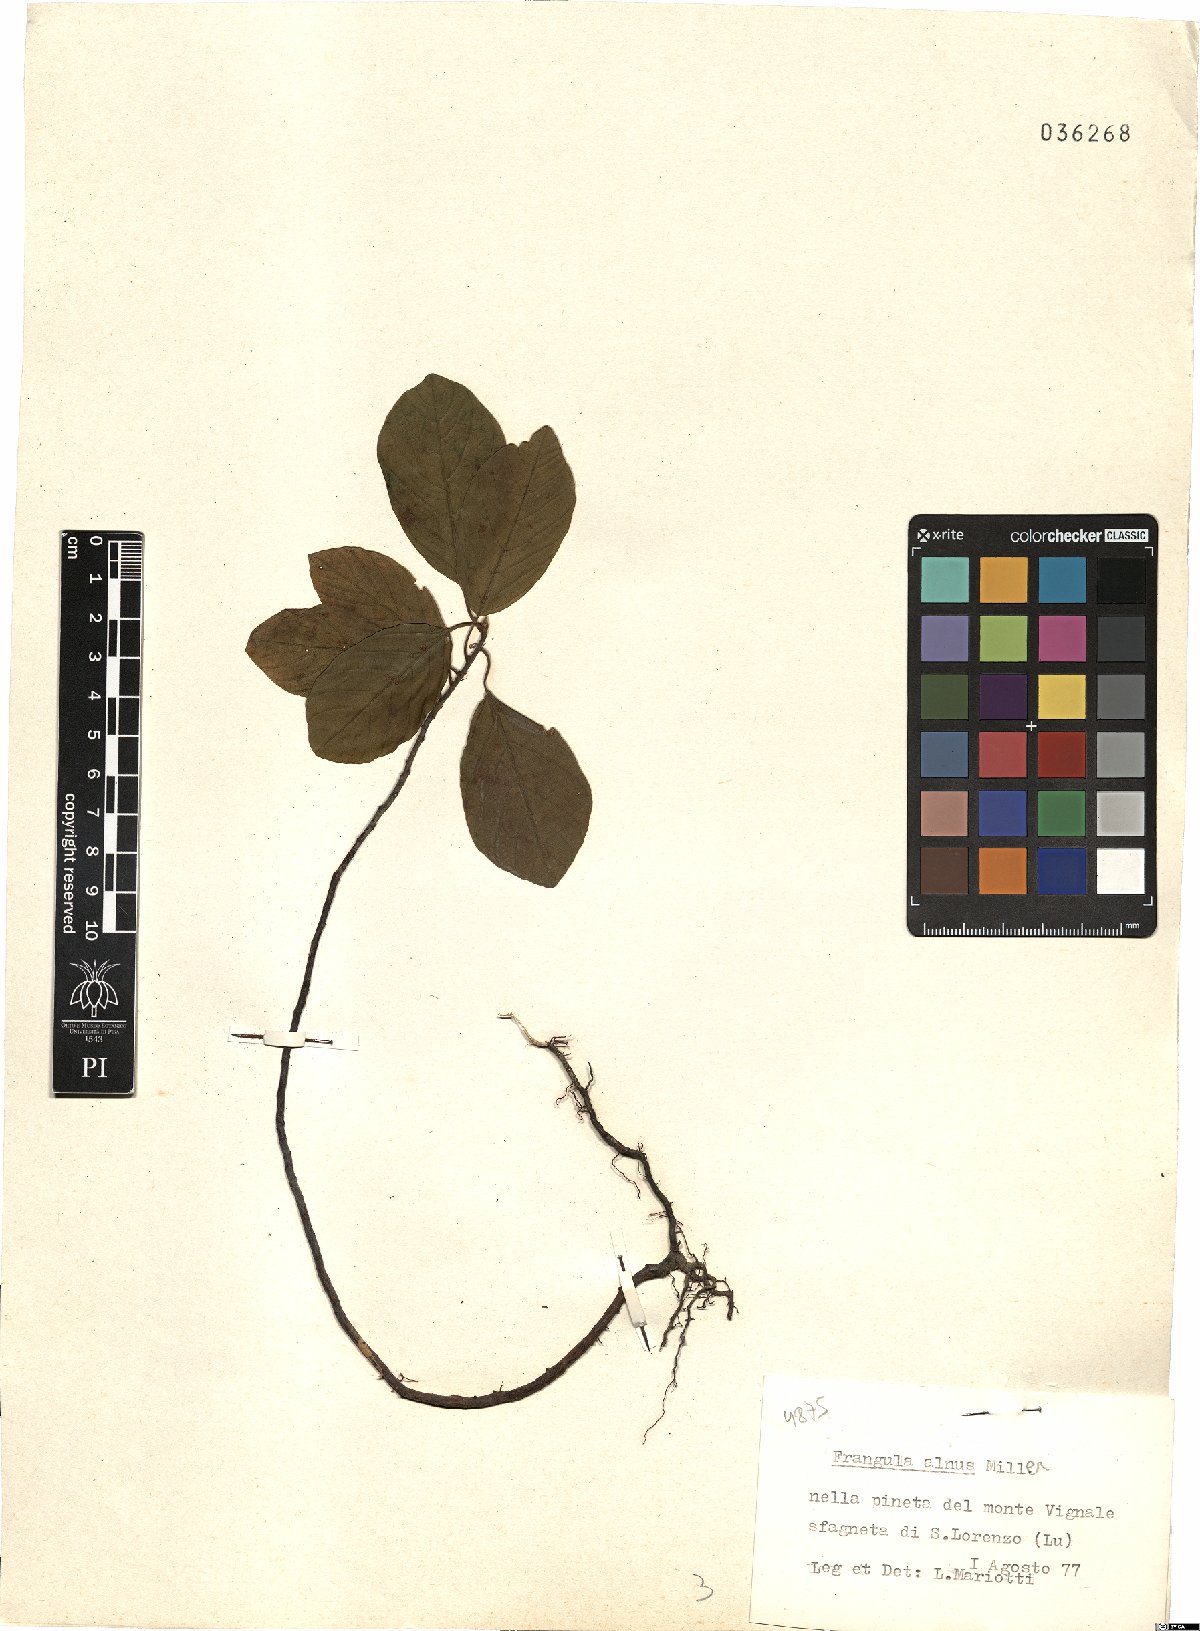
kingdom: Plantae
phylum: Tracheophyta
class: Magnoliopsida
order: Rosales
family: Rhamnaceae
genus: Frangula
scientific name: Frangula alnus
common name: Alder buckthorn
